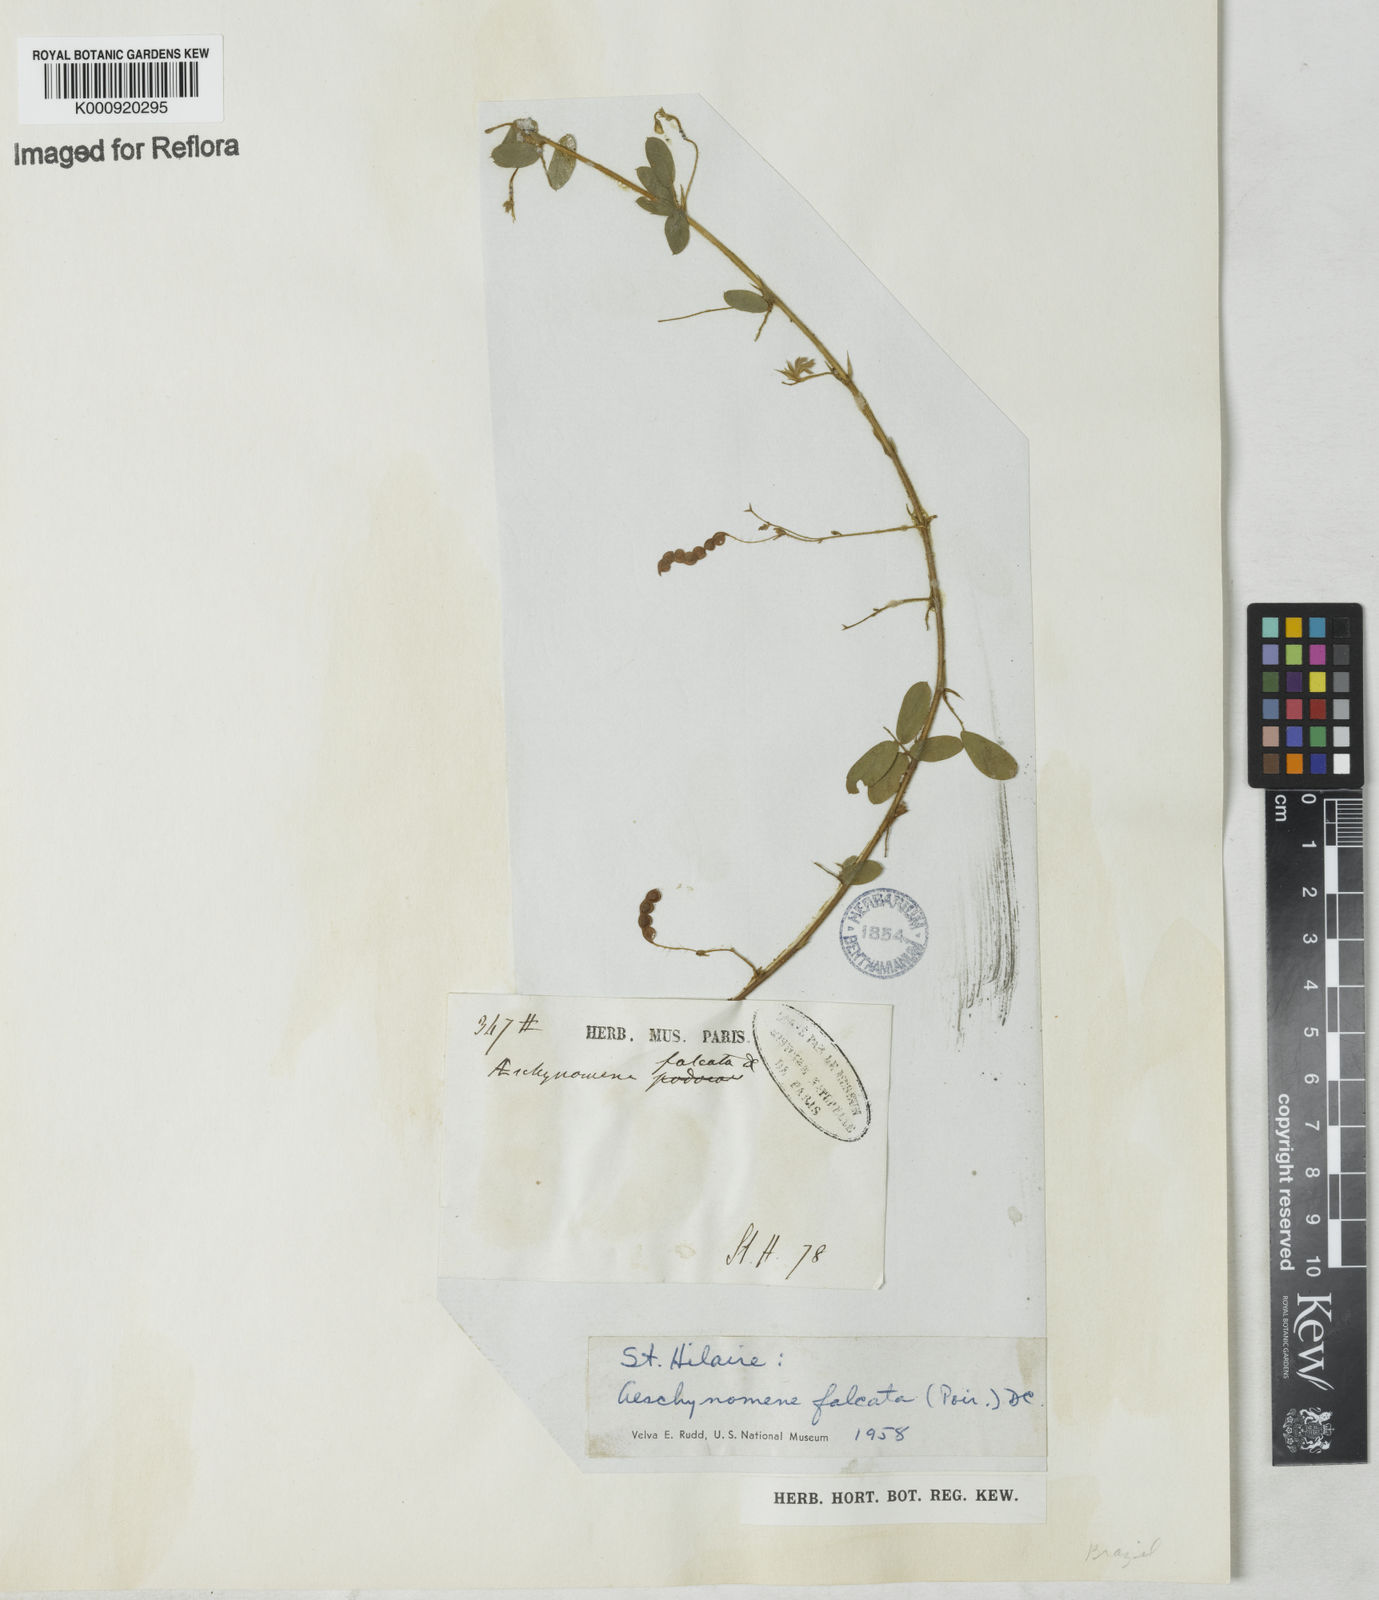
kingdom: Plantae
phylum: Tracheophyta
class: Magnoliopsida
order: Fabales
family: Fabaceae
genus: Aeschynomene
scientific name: Aeschynomene
